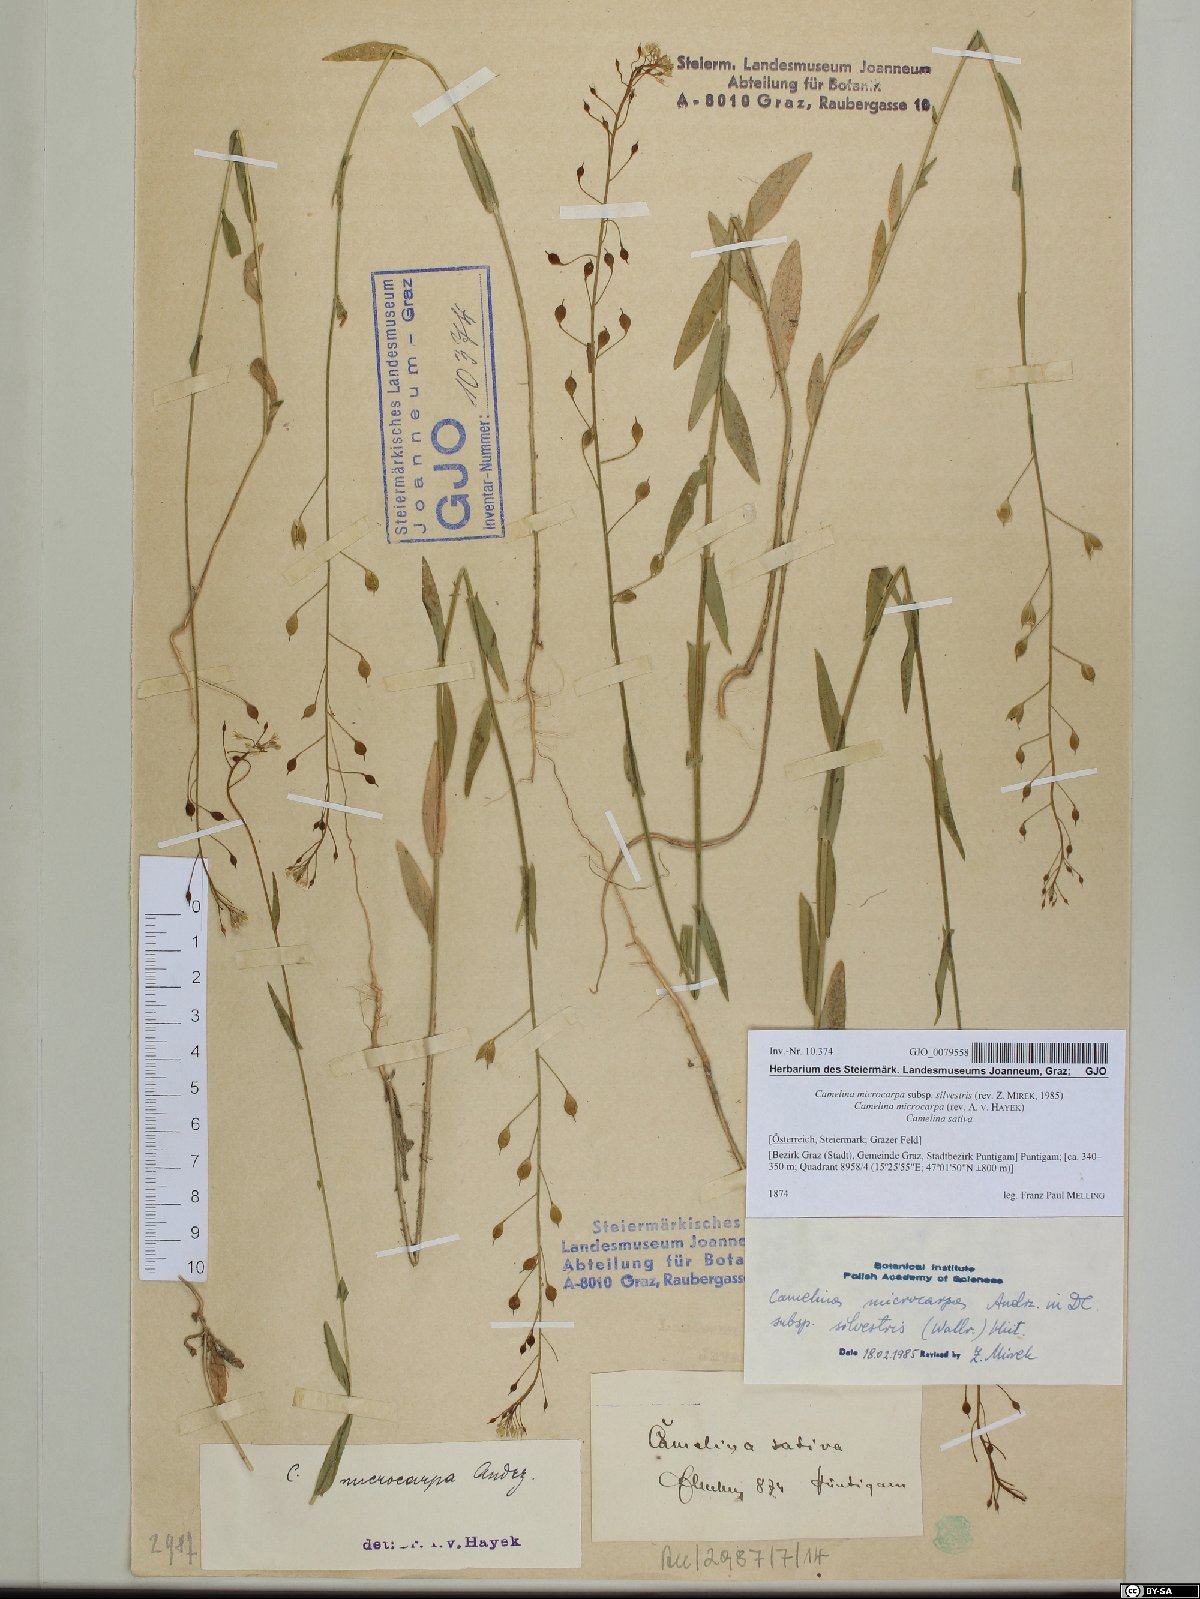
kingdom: Plantae
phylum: Tracheophyta
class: Magnoliopsida
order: Brassicales
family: Brassicaceae
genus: Camelina
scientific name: Camelina microcarpa
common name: Lesser gold-of-pleasure
